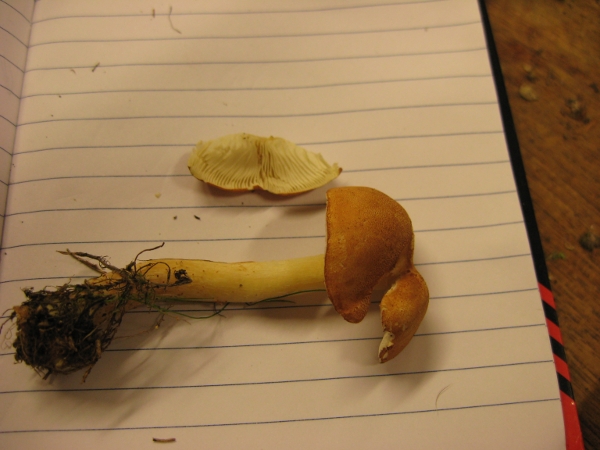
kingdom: Fungi
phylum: Basidiomycota
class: Agaricomycetes
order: Agaricales
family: Agaricaceae
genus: Cystodermella
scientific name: Cystodermella cinnabarina
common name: cinnober-grynhat
